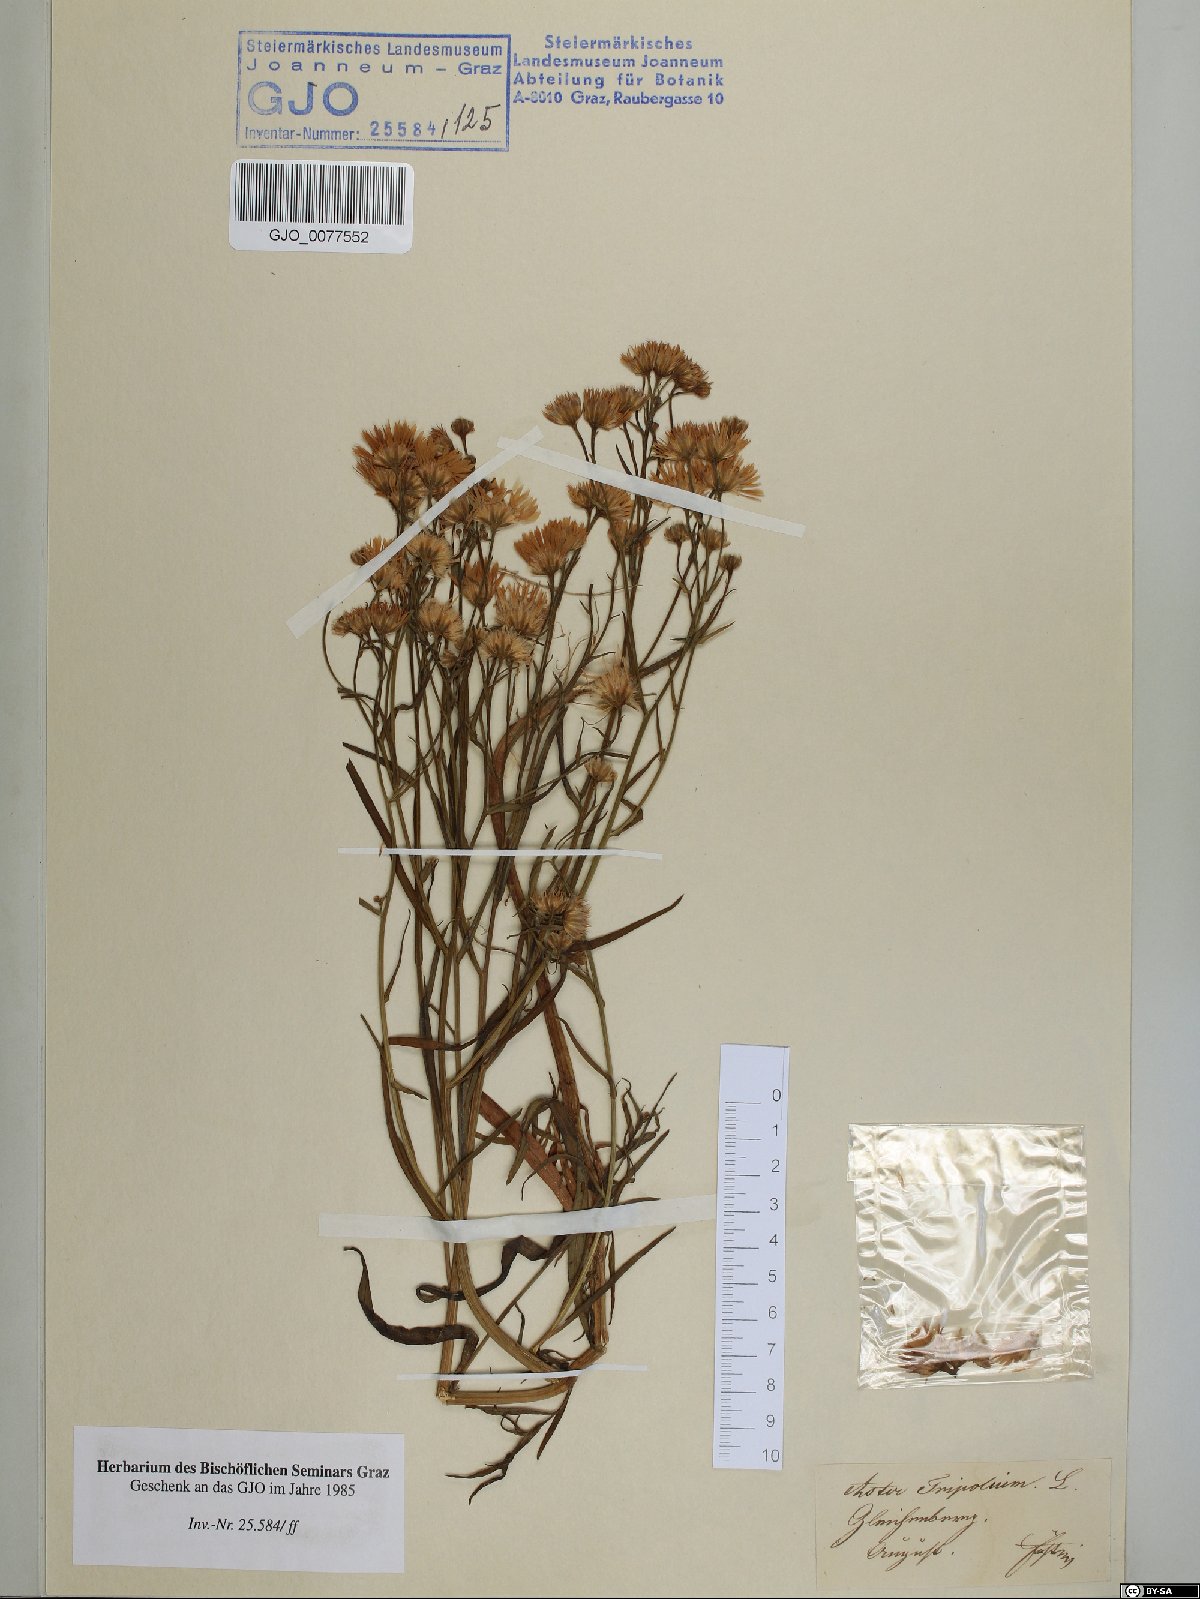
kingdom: Plantae
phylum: Tracheophyta
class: Magnoliopsida
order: Asterales
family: Asteraceae
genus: Tripolium
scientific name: Tripolium pannonicum
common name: Sea aster
